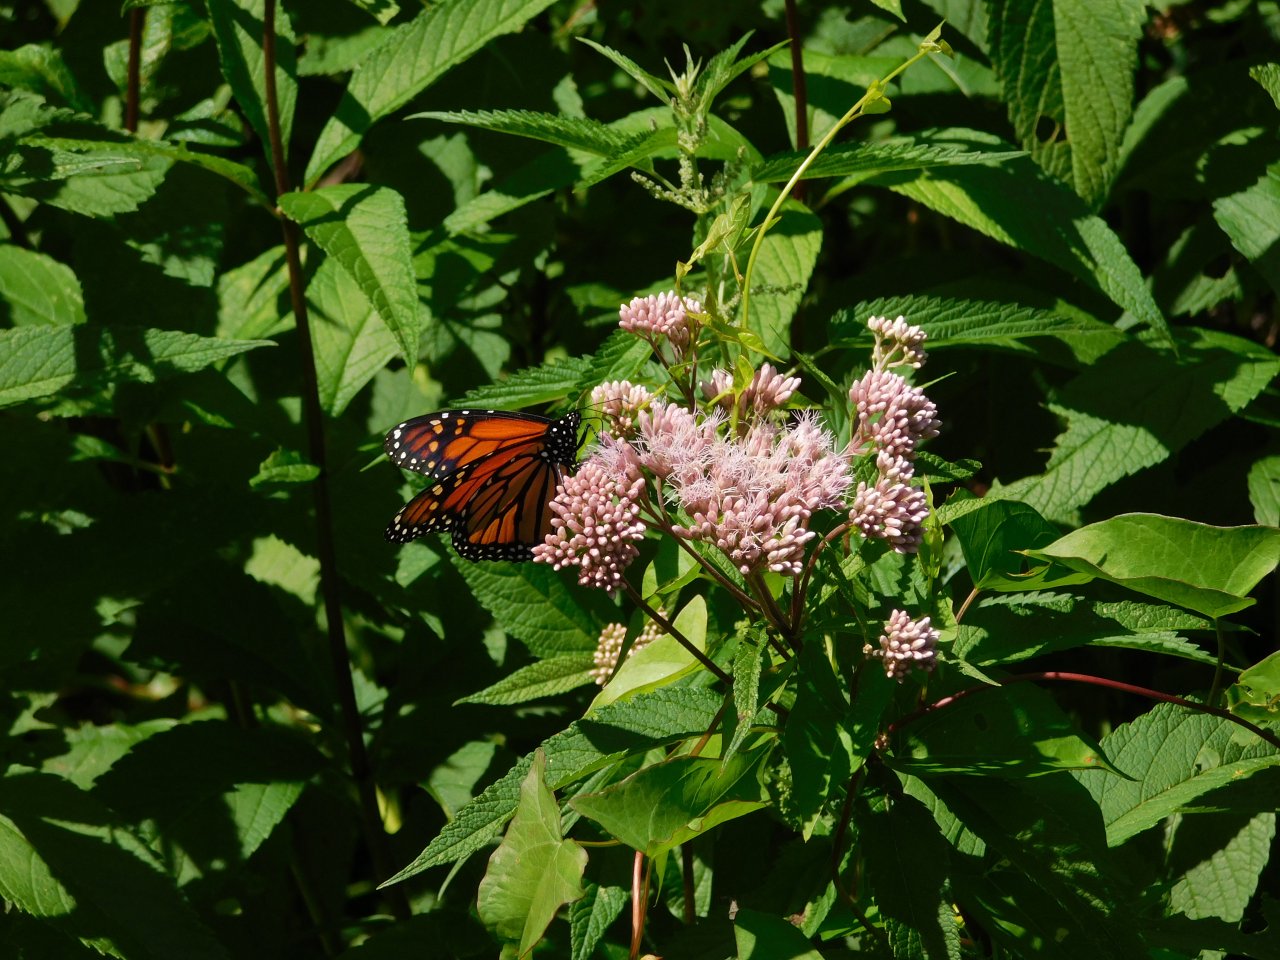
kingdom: Animalia
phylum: Arthropoda
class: Insecta
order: Lepidoptera
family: Nymphalidae
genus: Danaus
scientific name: Danaus plexippus
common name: Monarch
